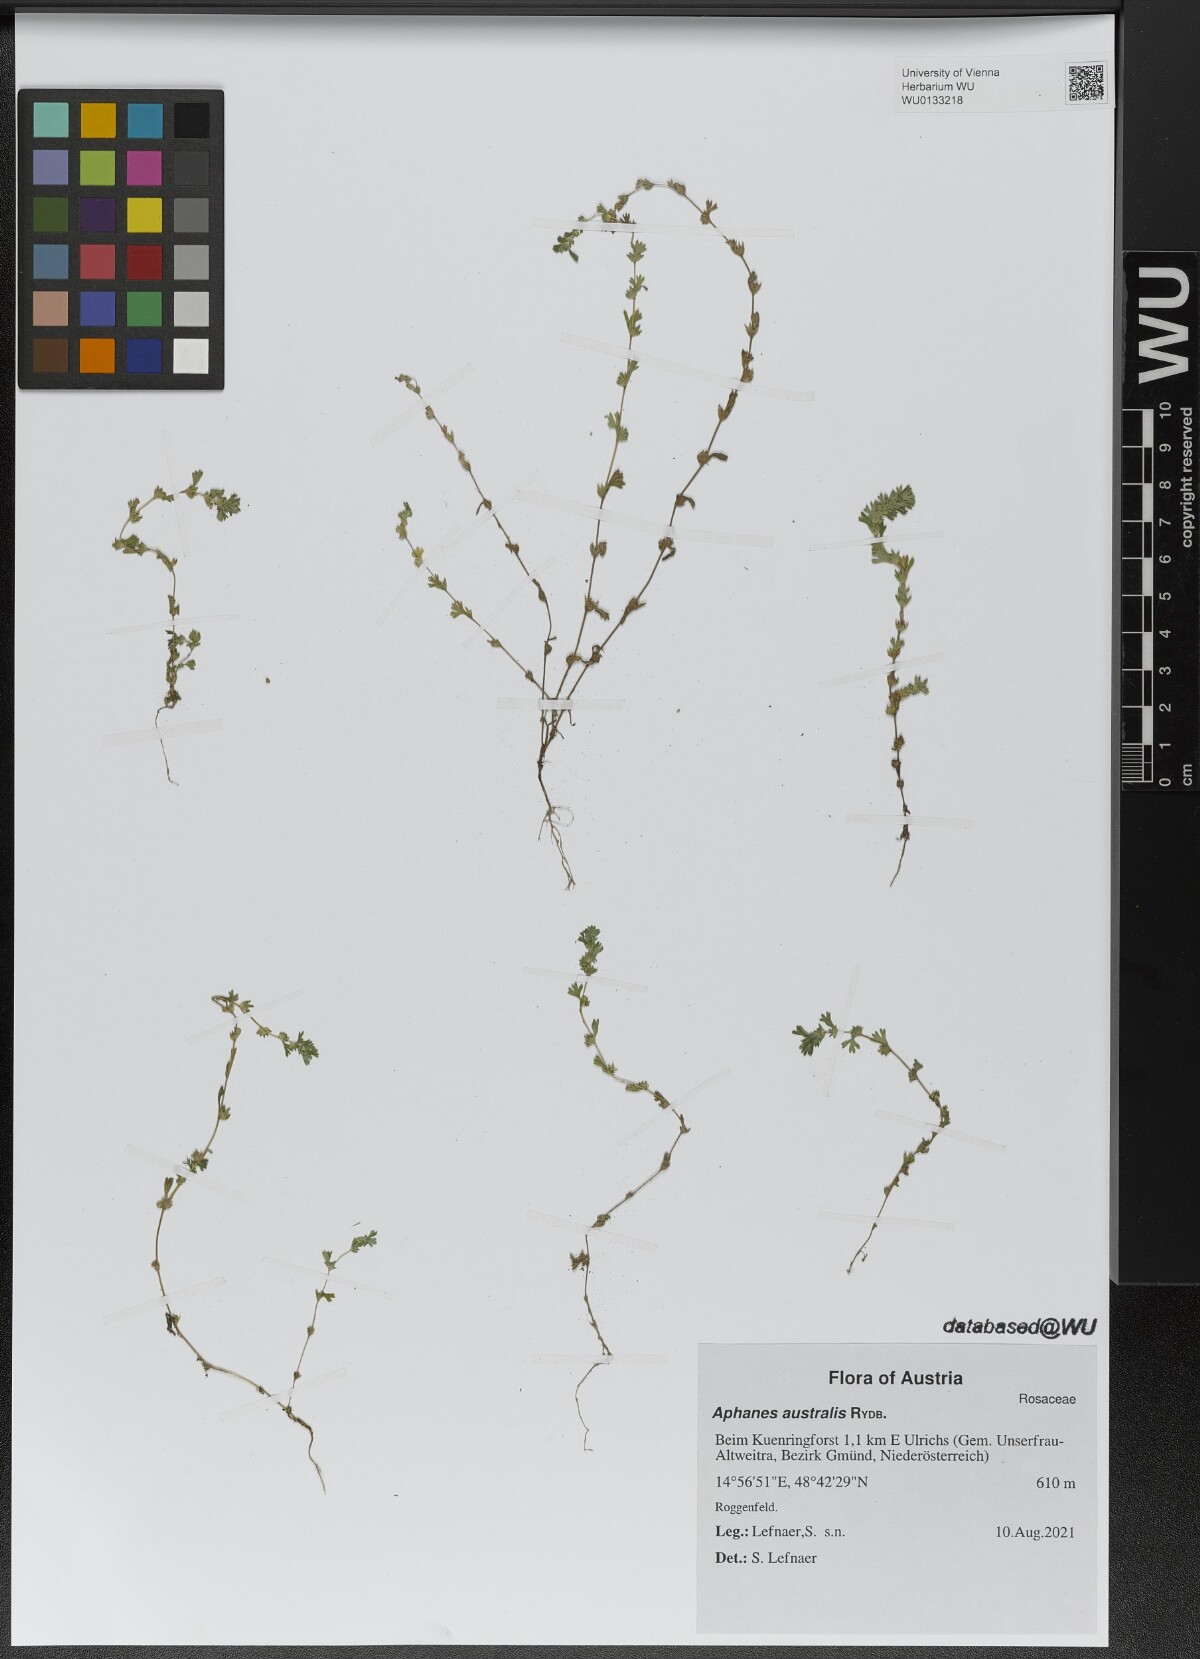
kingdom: Plantae
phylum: Tracheophyta
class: Magnoliopsida
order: Rosales
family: Rosaceae
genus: Aphanes
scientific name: Aphanes australis
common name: Slender parsley-piert
